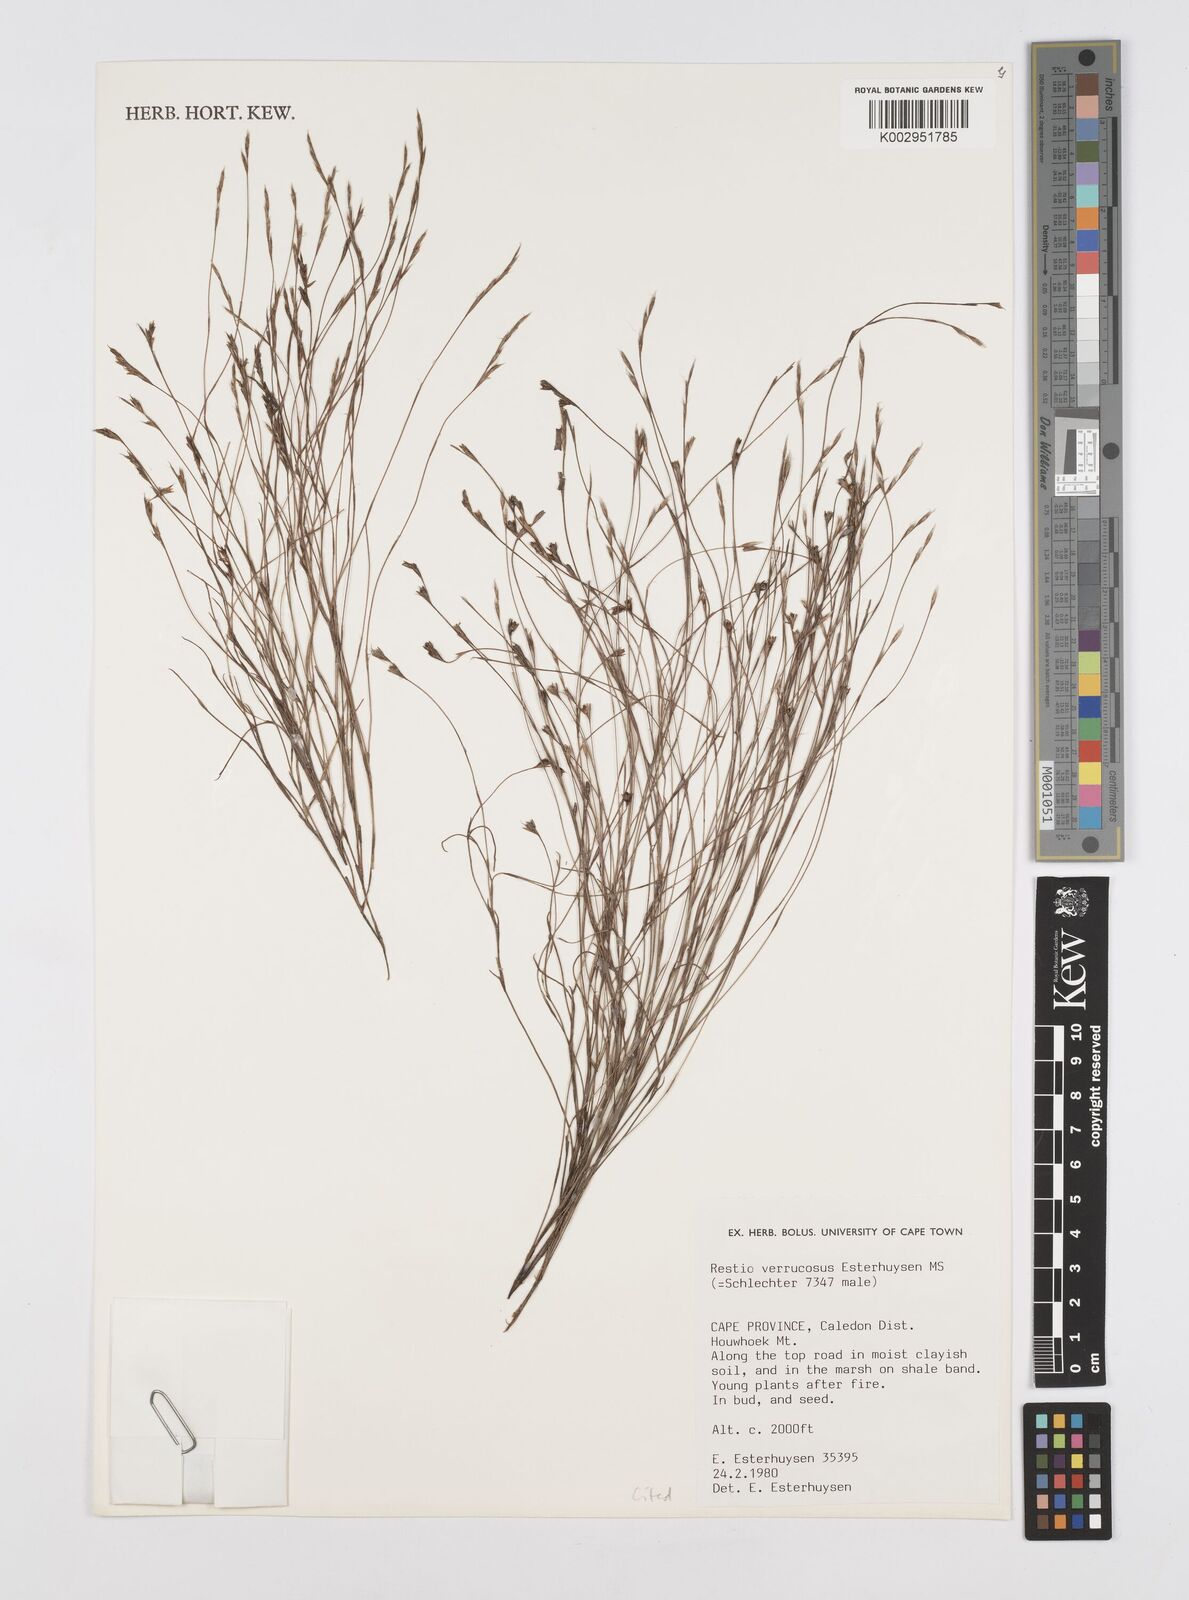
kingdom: Plantae
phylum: Tracheophyta
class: Liliopsida
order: Poales
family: Restionaceae
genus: Restio
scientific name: Restio verrucosus
